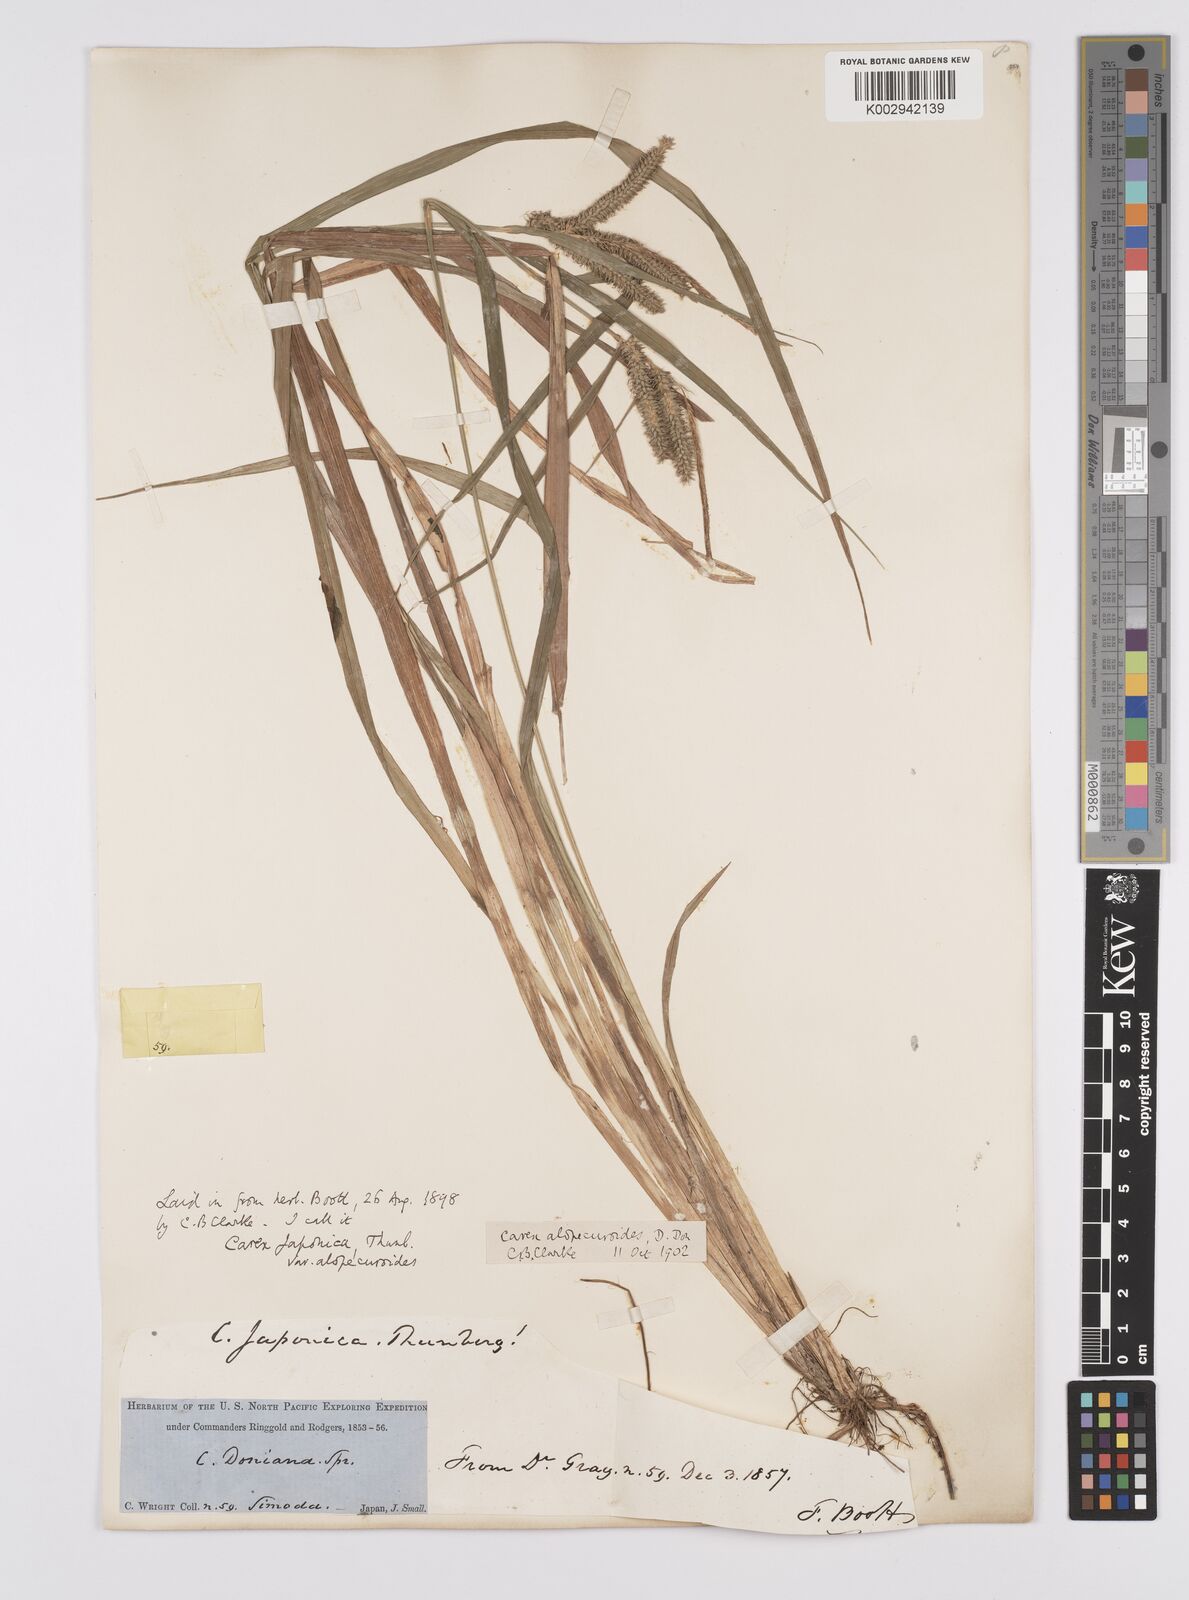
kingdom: Plantae
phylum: Tracheophyta
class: Liliopsida
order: Poales
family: Cyperaceae
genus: Carex
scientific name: Carex japonica
